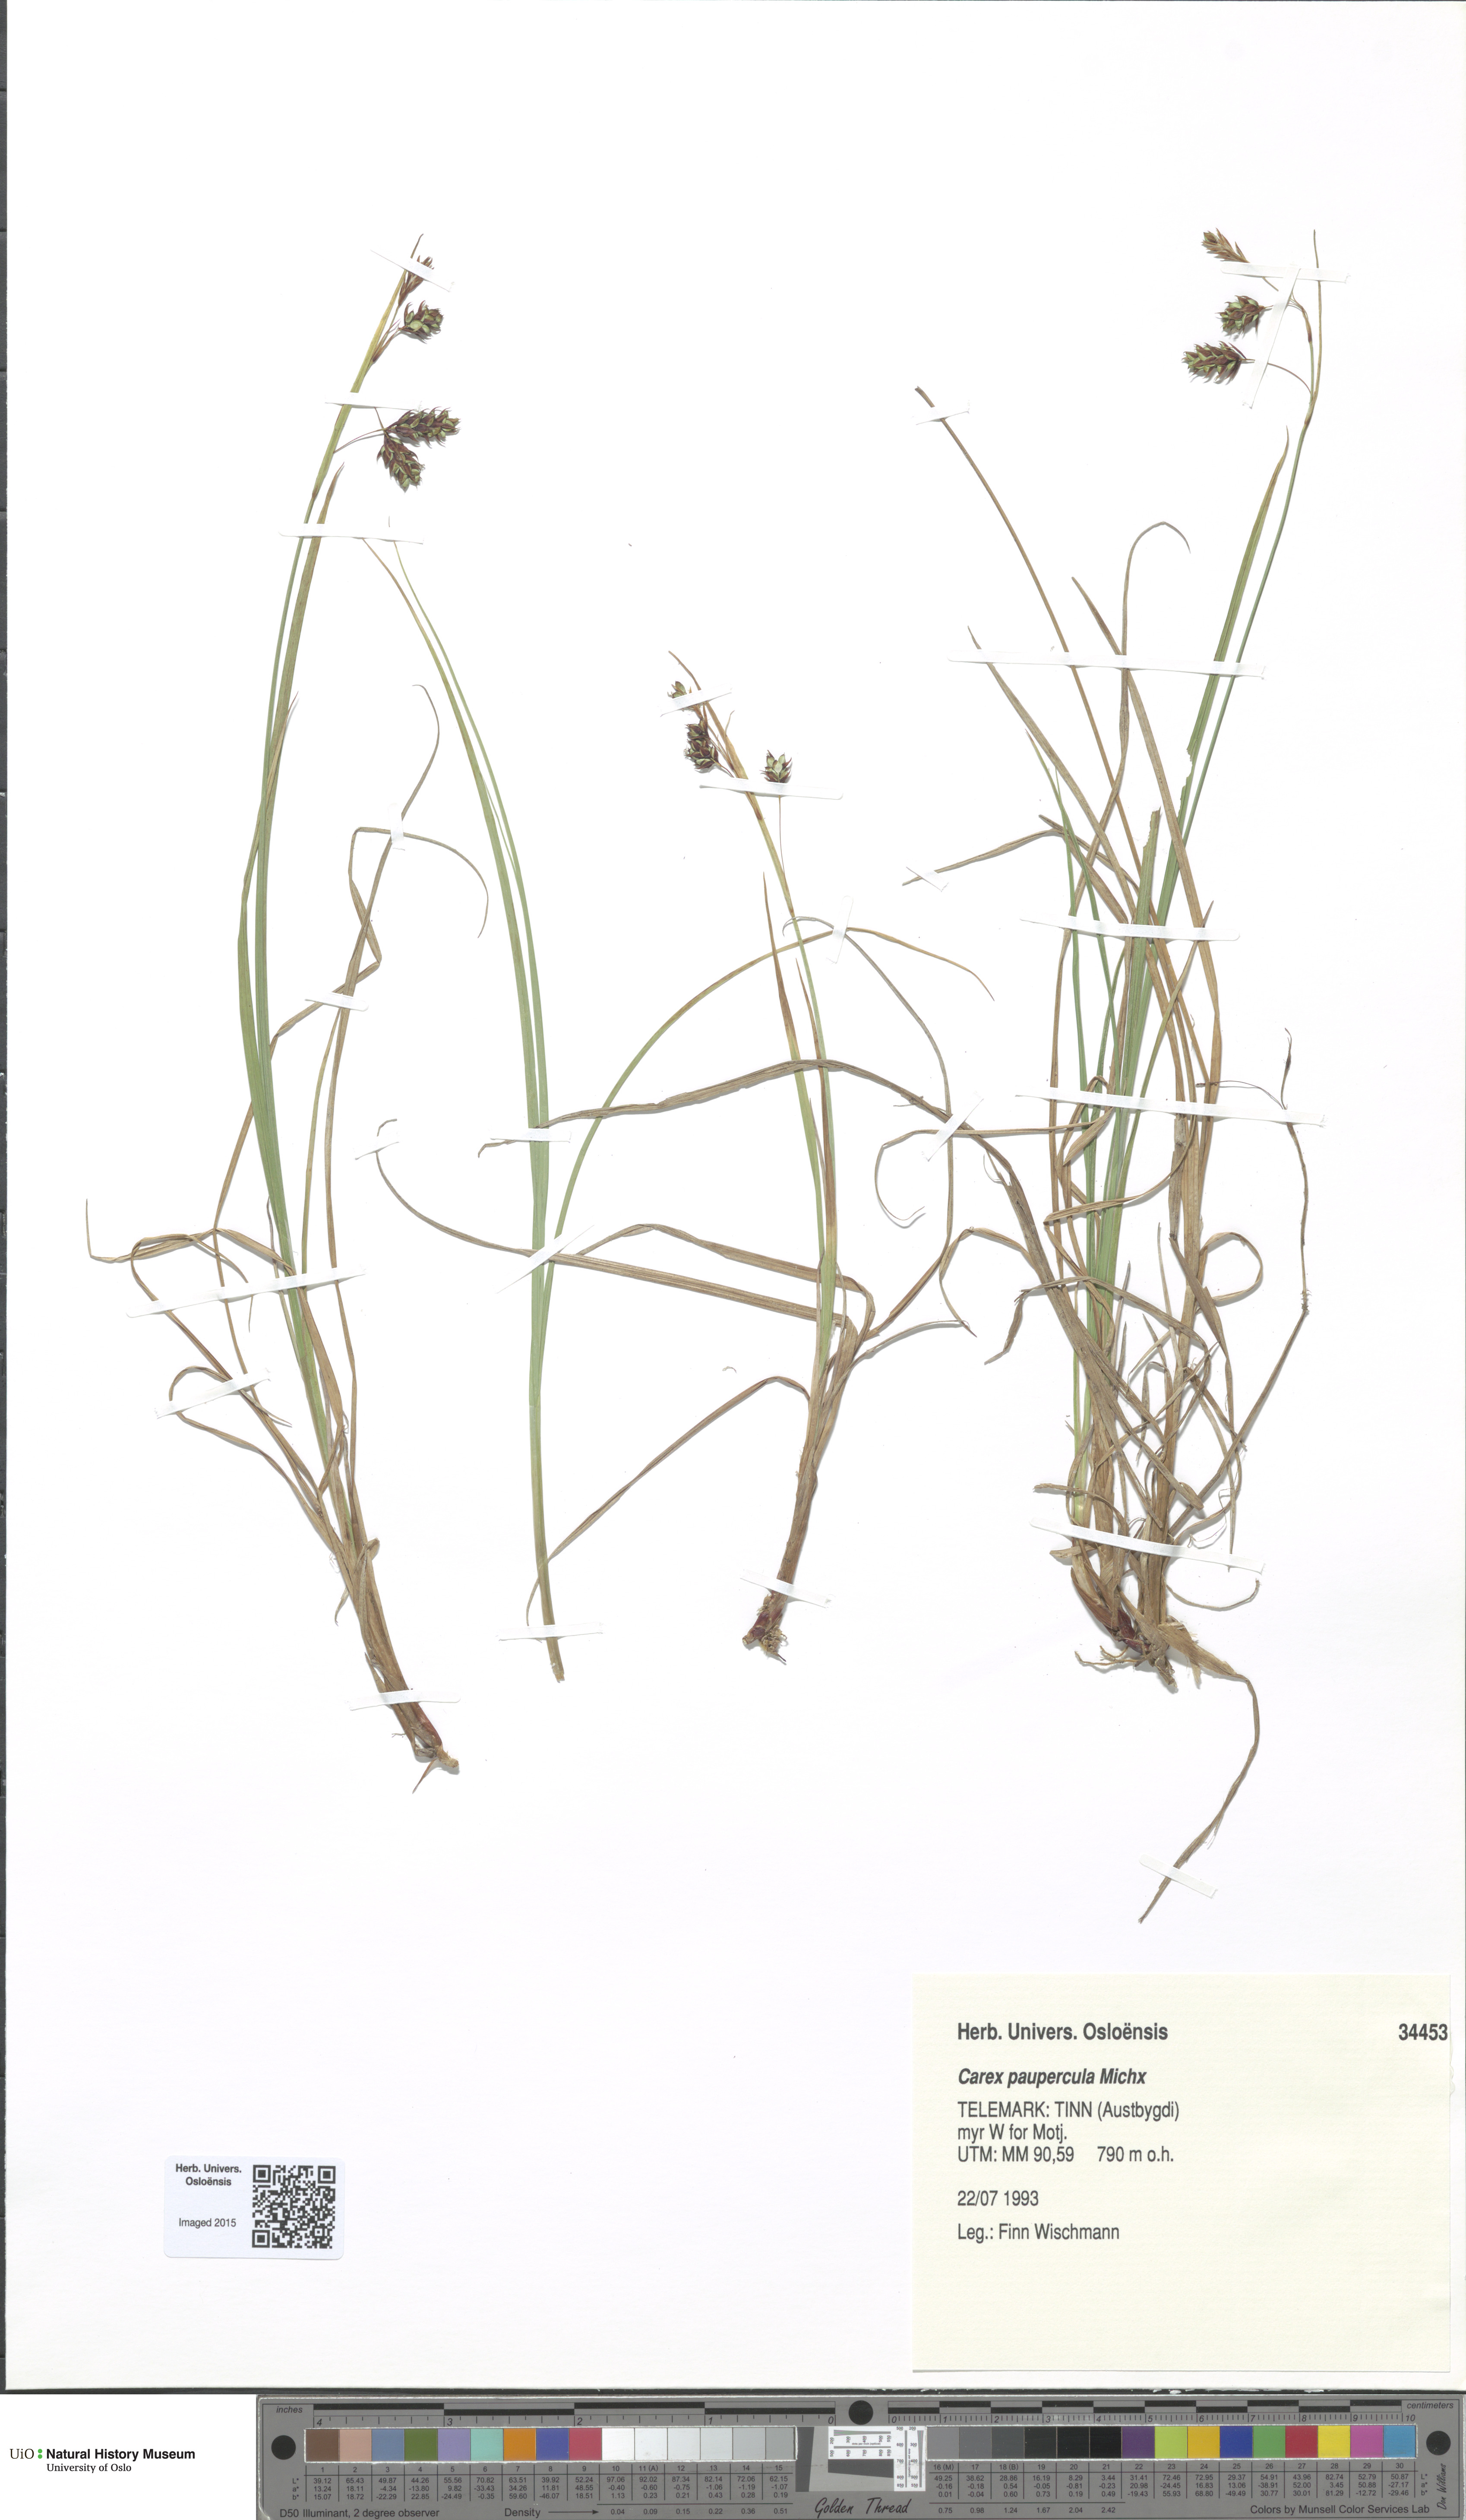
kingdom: Plantae
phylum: Tracheophyta
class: Liliopsida
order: Poales
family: Cyperaceae
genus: Carex
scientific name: Carex magellanica
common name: Bog sedge
